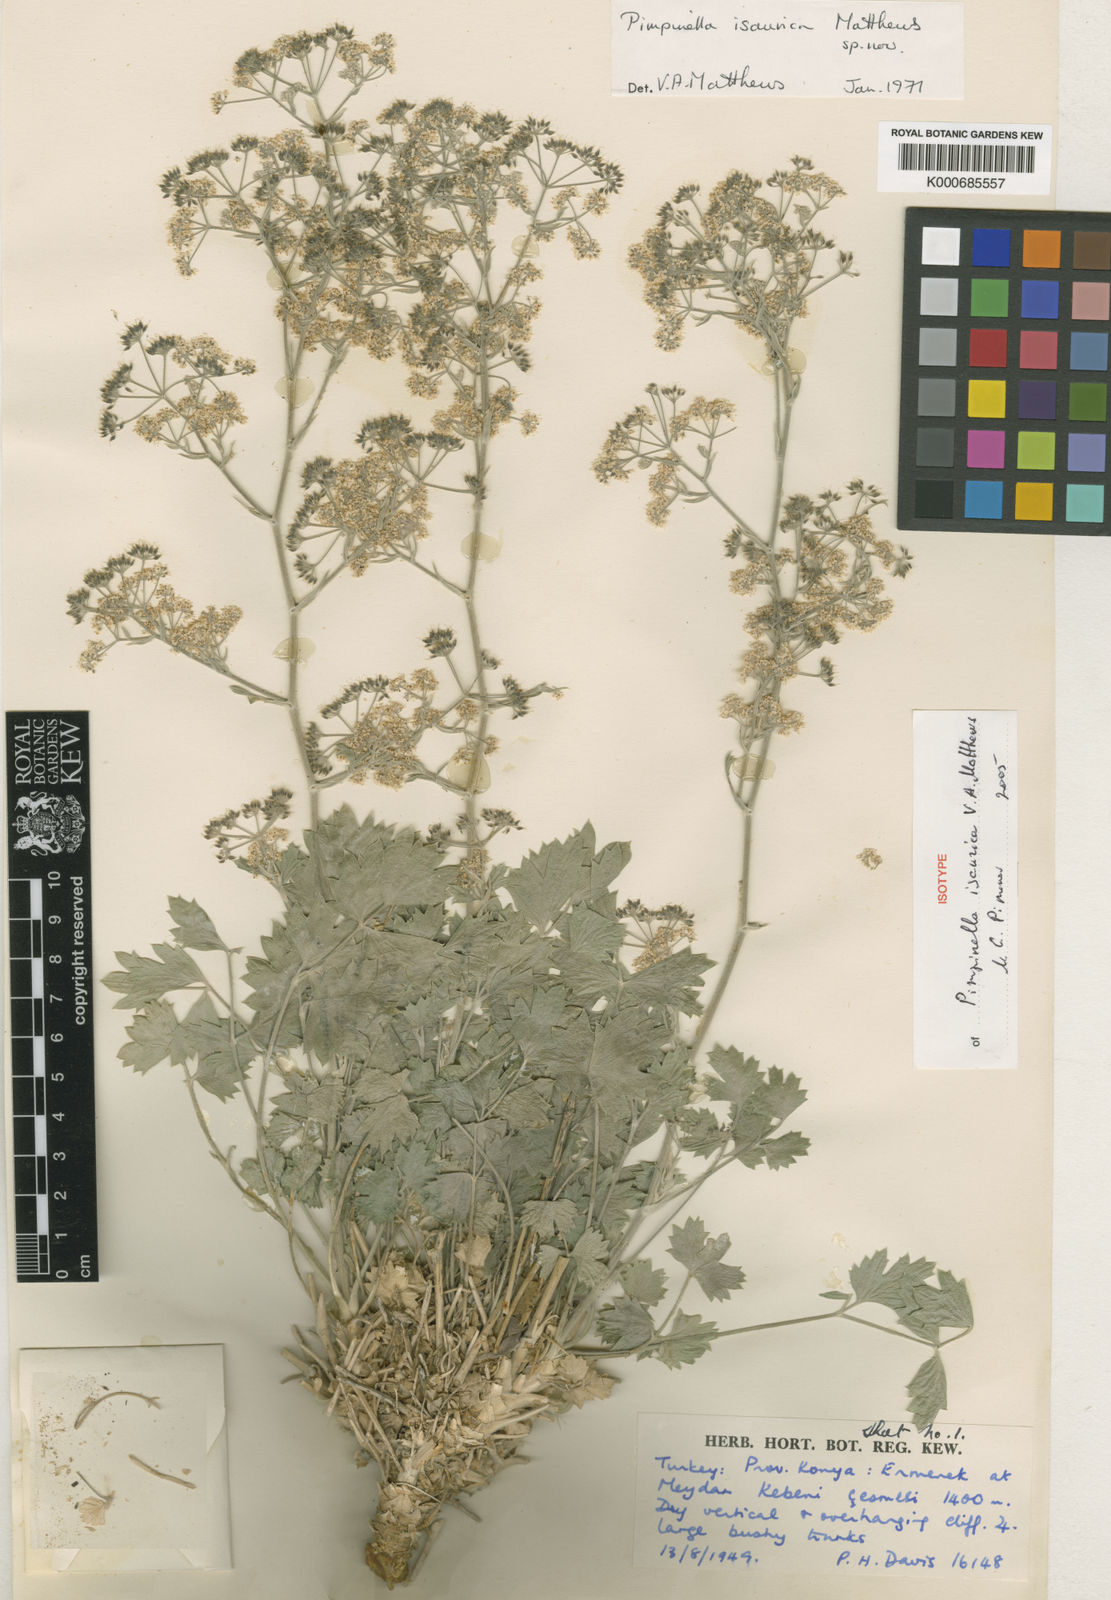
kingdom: Plantae
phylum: Tracheophyta
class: Magnoliopsida
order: Apiales
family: Apiaceae
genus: Pimpinella
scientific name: Pimpinella isaurica
